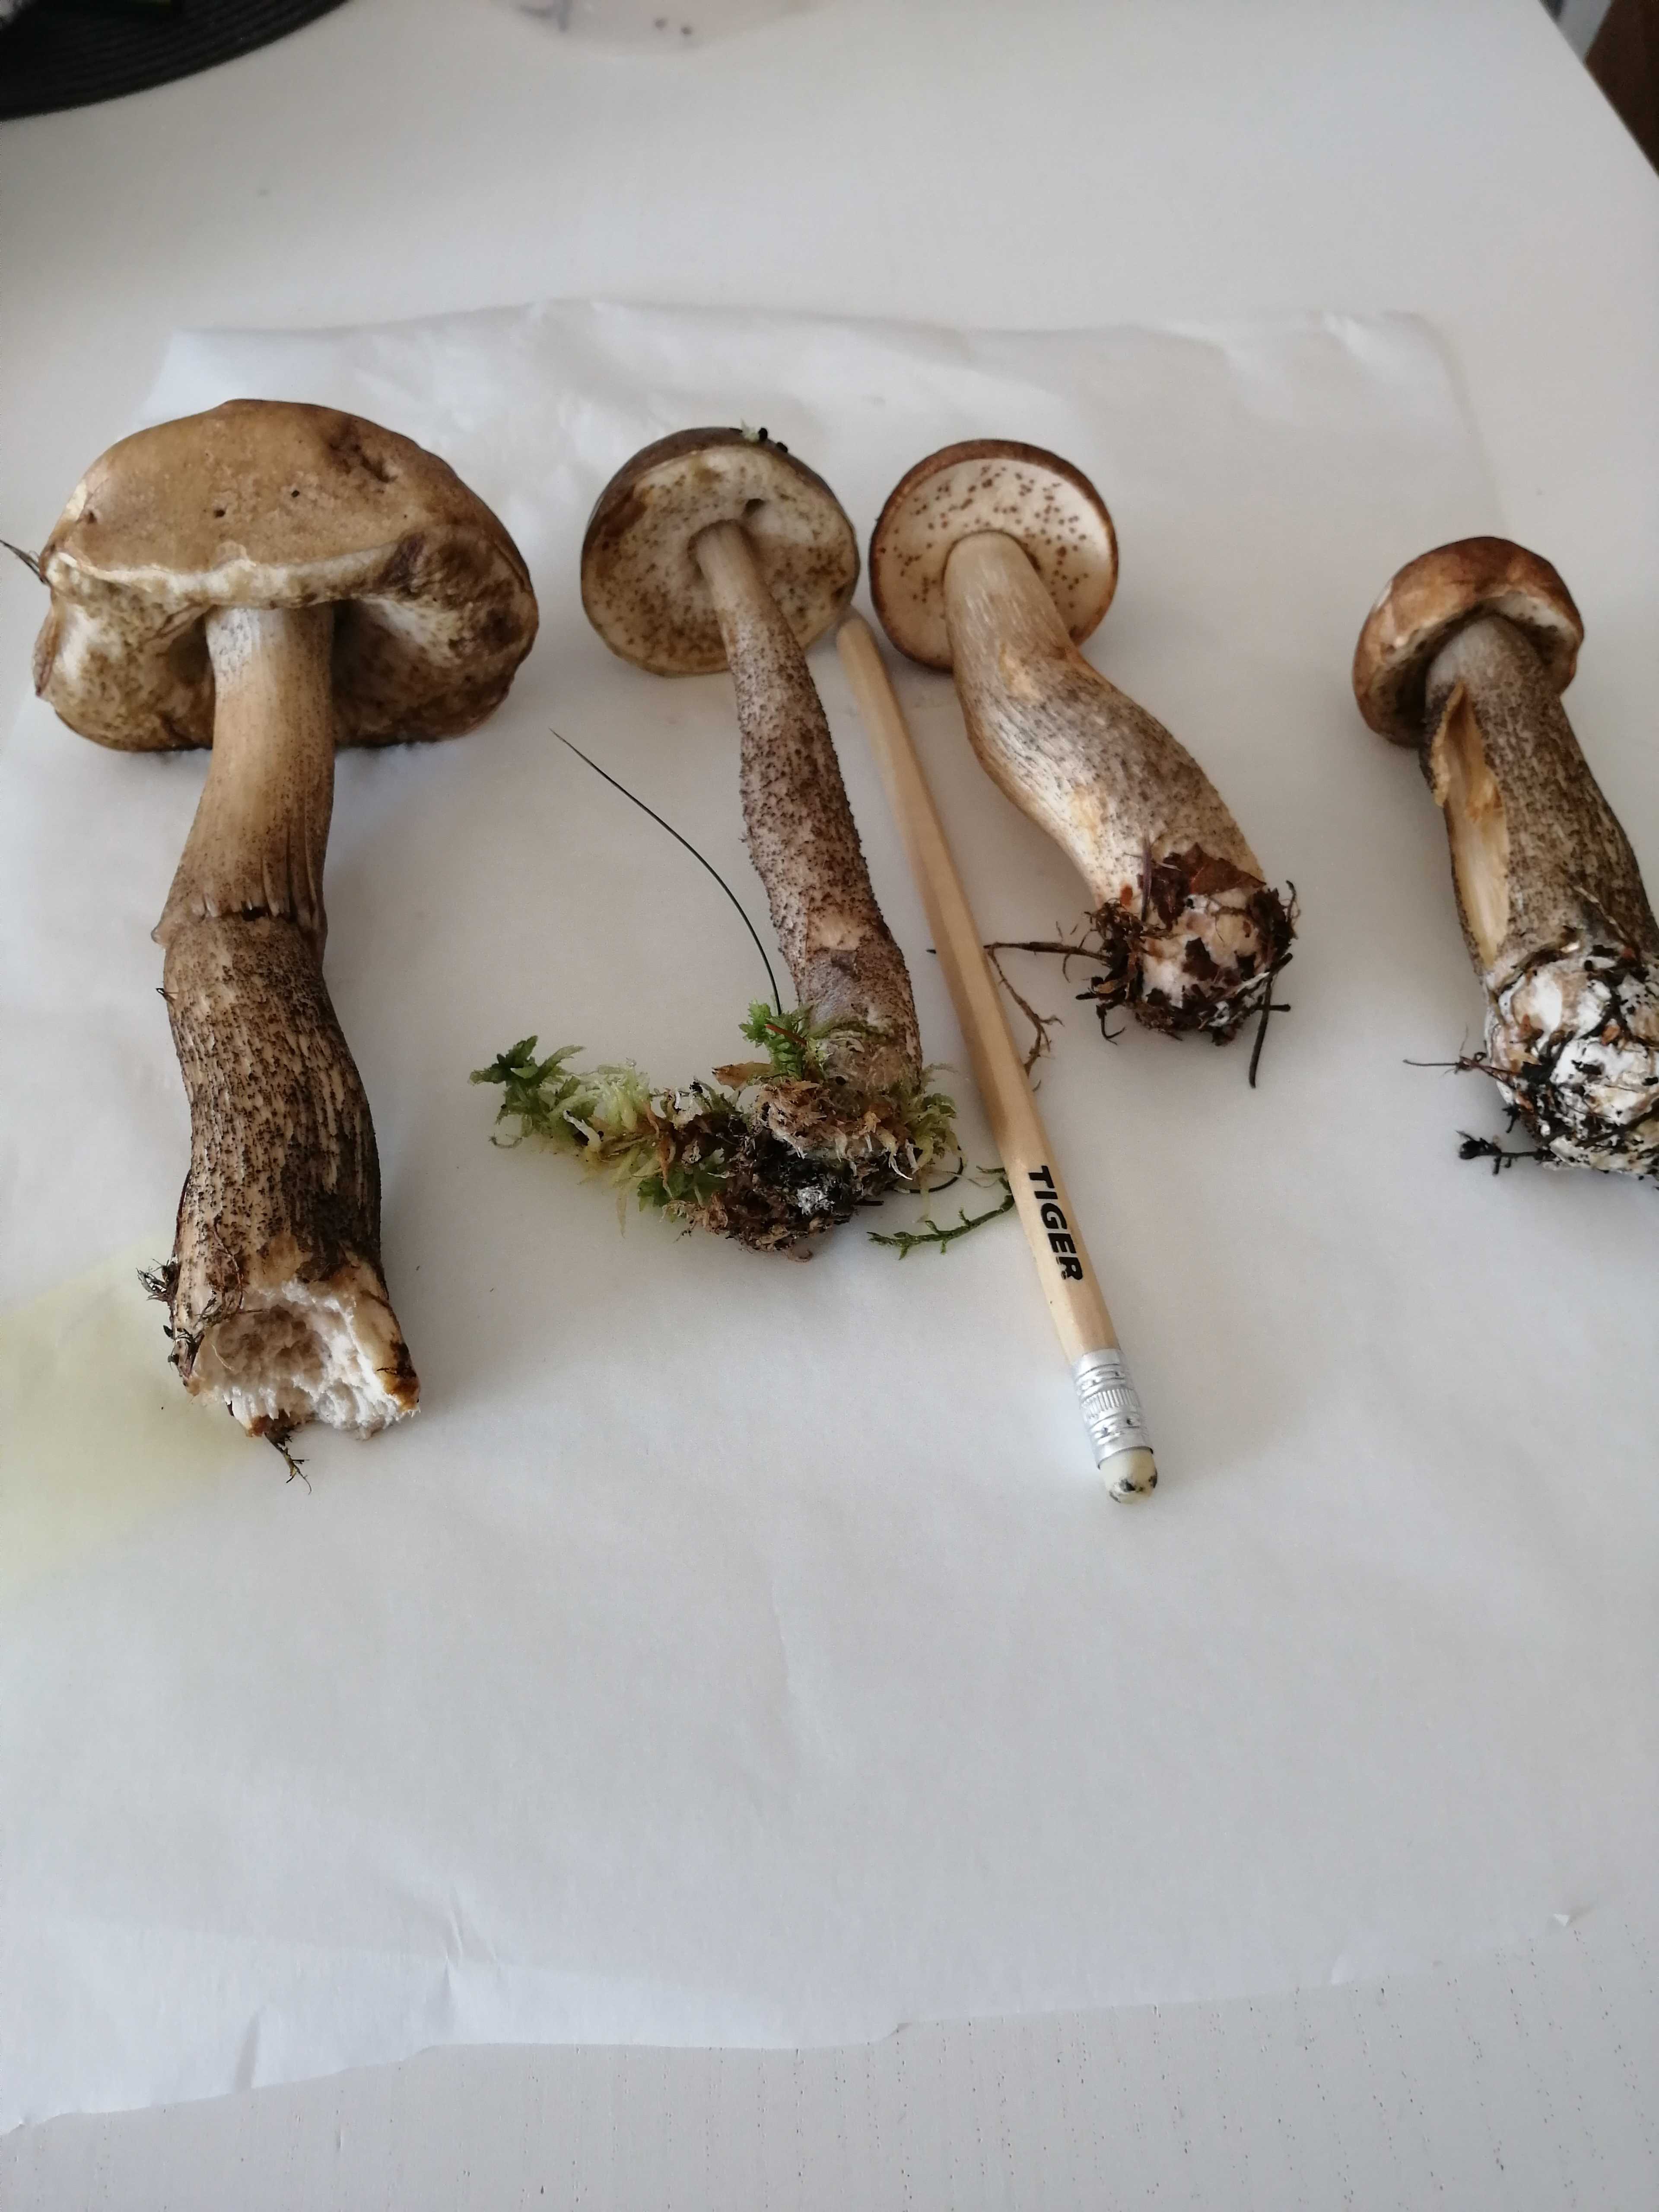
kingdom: Fungi
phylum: Basidiomycota
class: Agaricomycetes
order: Boletales
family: Boletaceae
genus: Leccinum
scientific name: Leccinum scabrum
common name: brun skælrørhat
